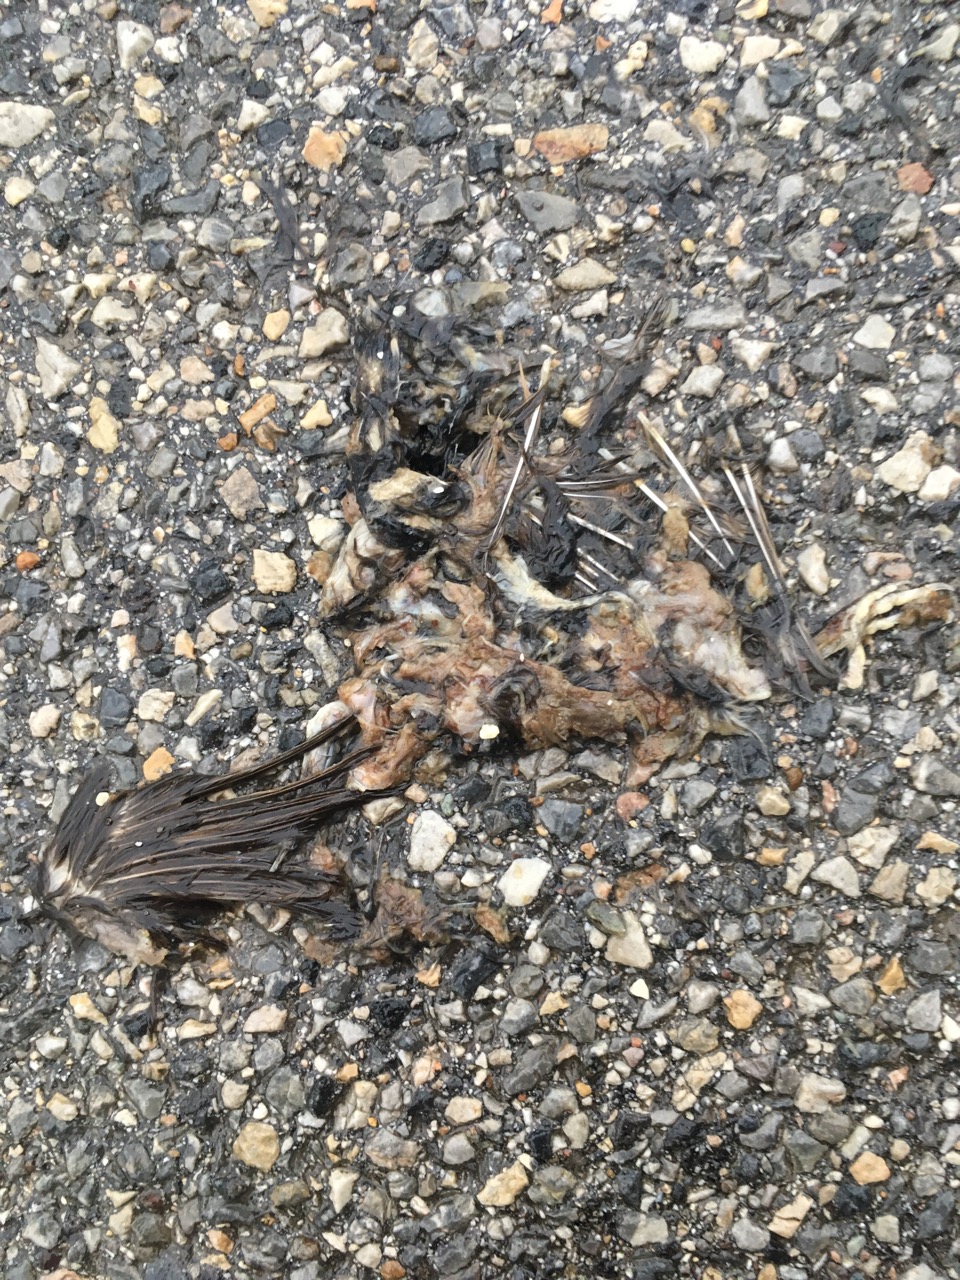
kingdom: Animalia
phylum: Chordata
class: Aves
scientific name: Aves
